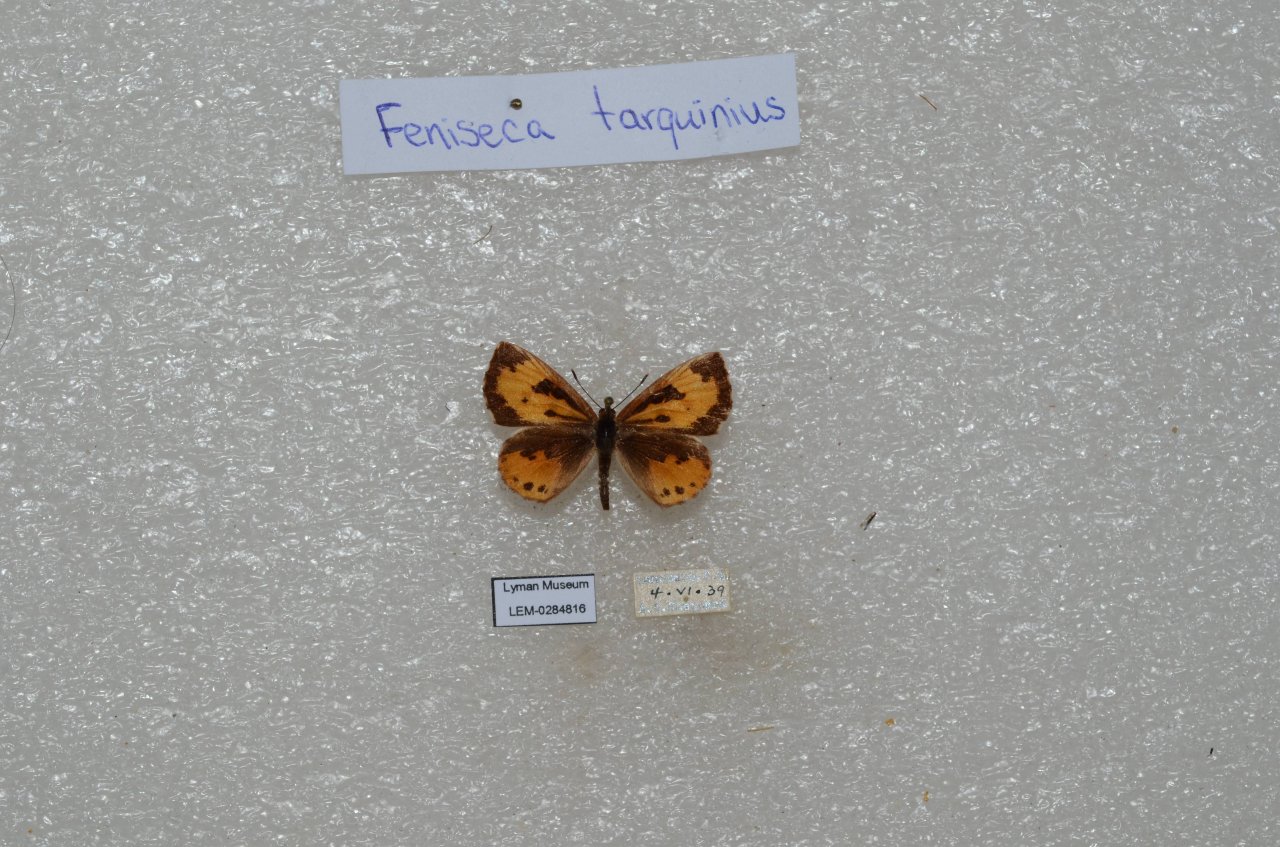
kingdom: Animalia
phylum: Arthropoda
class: Insecta
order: Lepidoptera
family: Lycaenidae
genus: Feniseca
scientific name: Feniseca tarquinius
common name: Harvester
